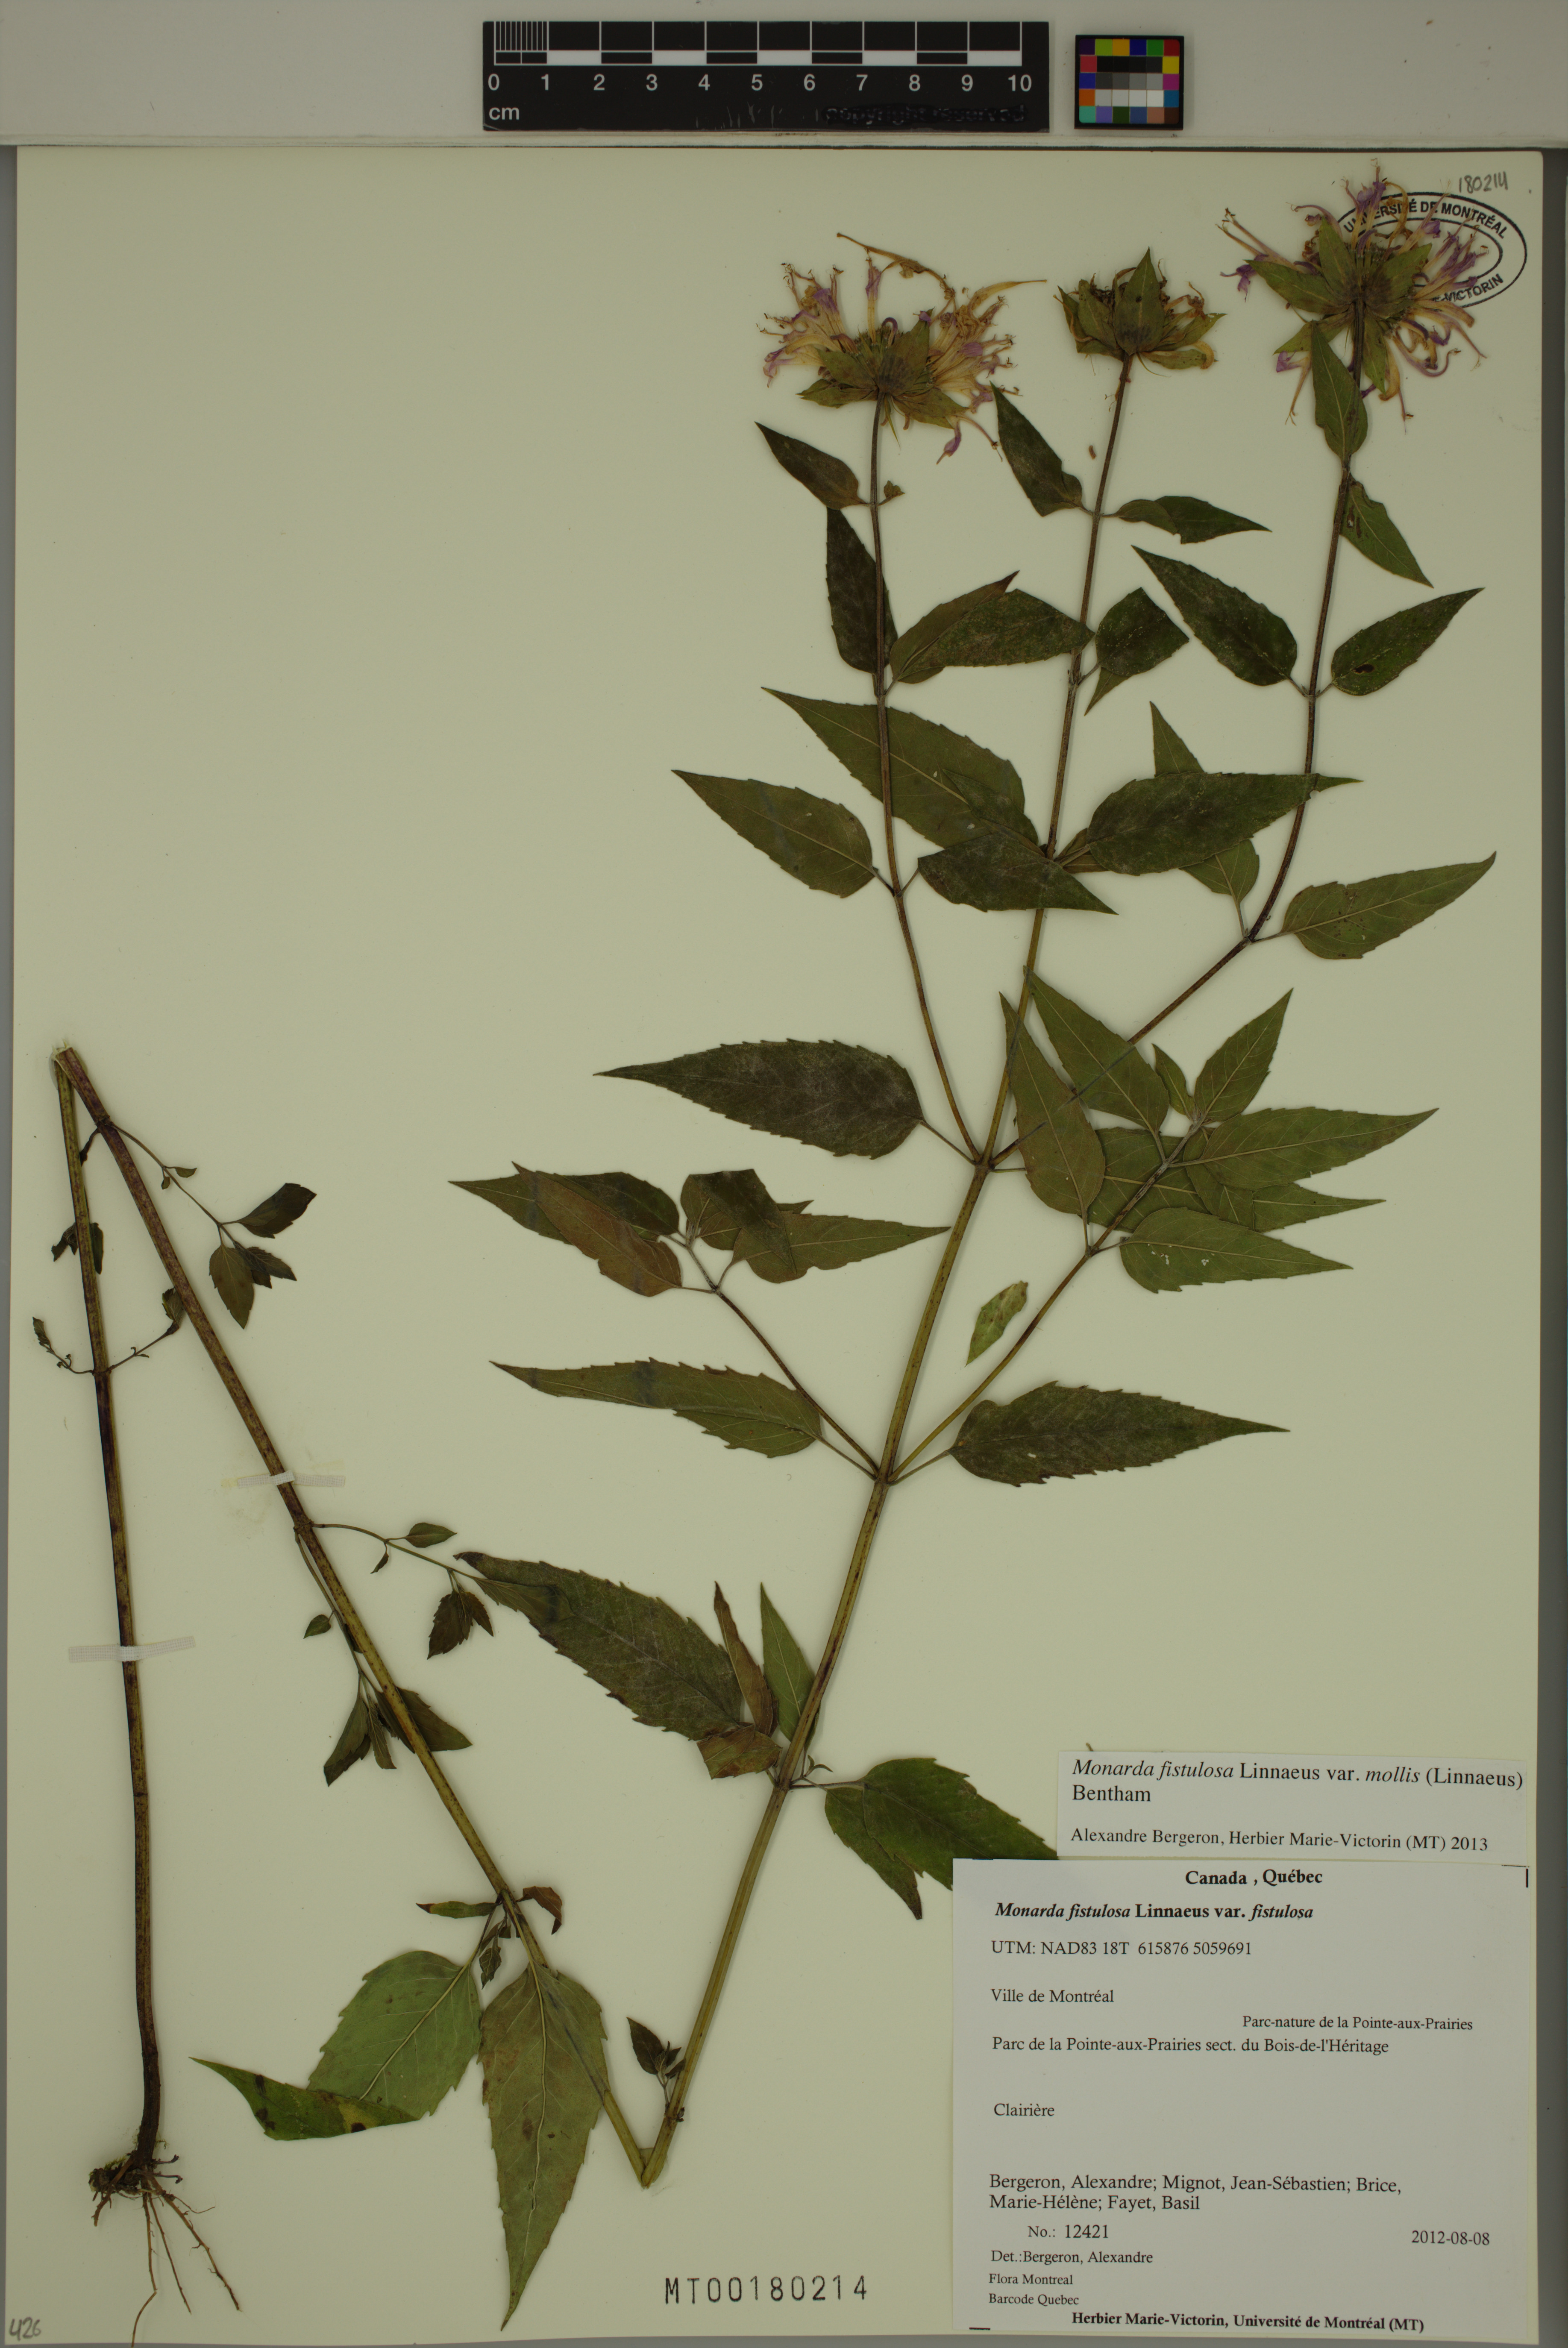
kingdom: Plantae
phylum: Tracheophyta
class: Magnoliopsida
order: Lamiales
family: Lamiaceae
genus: Monarda
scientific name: Monarda fistulosa
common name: Purple beebalm
